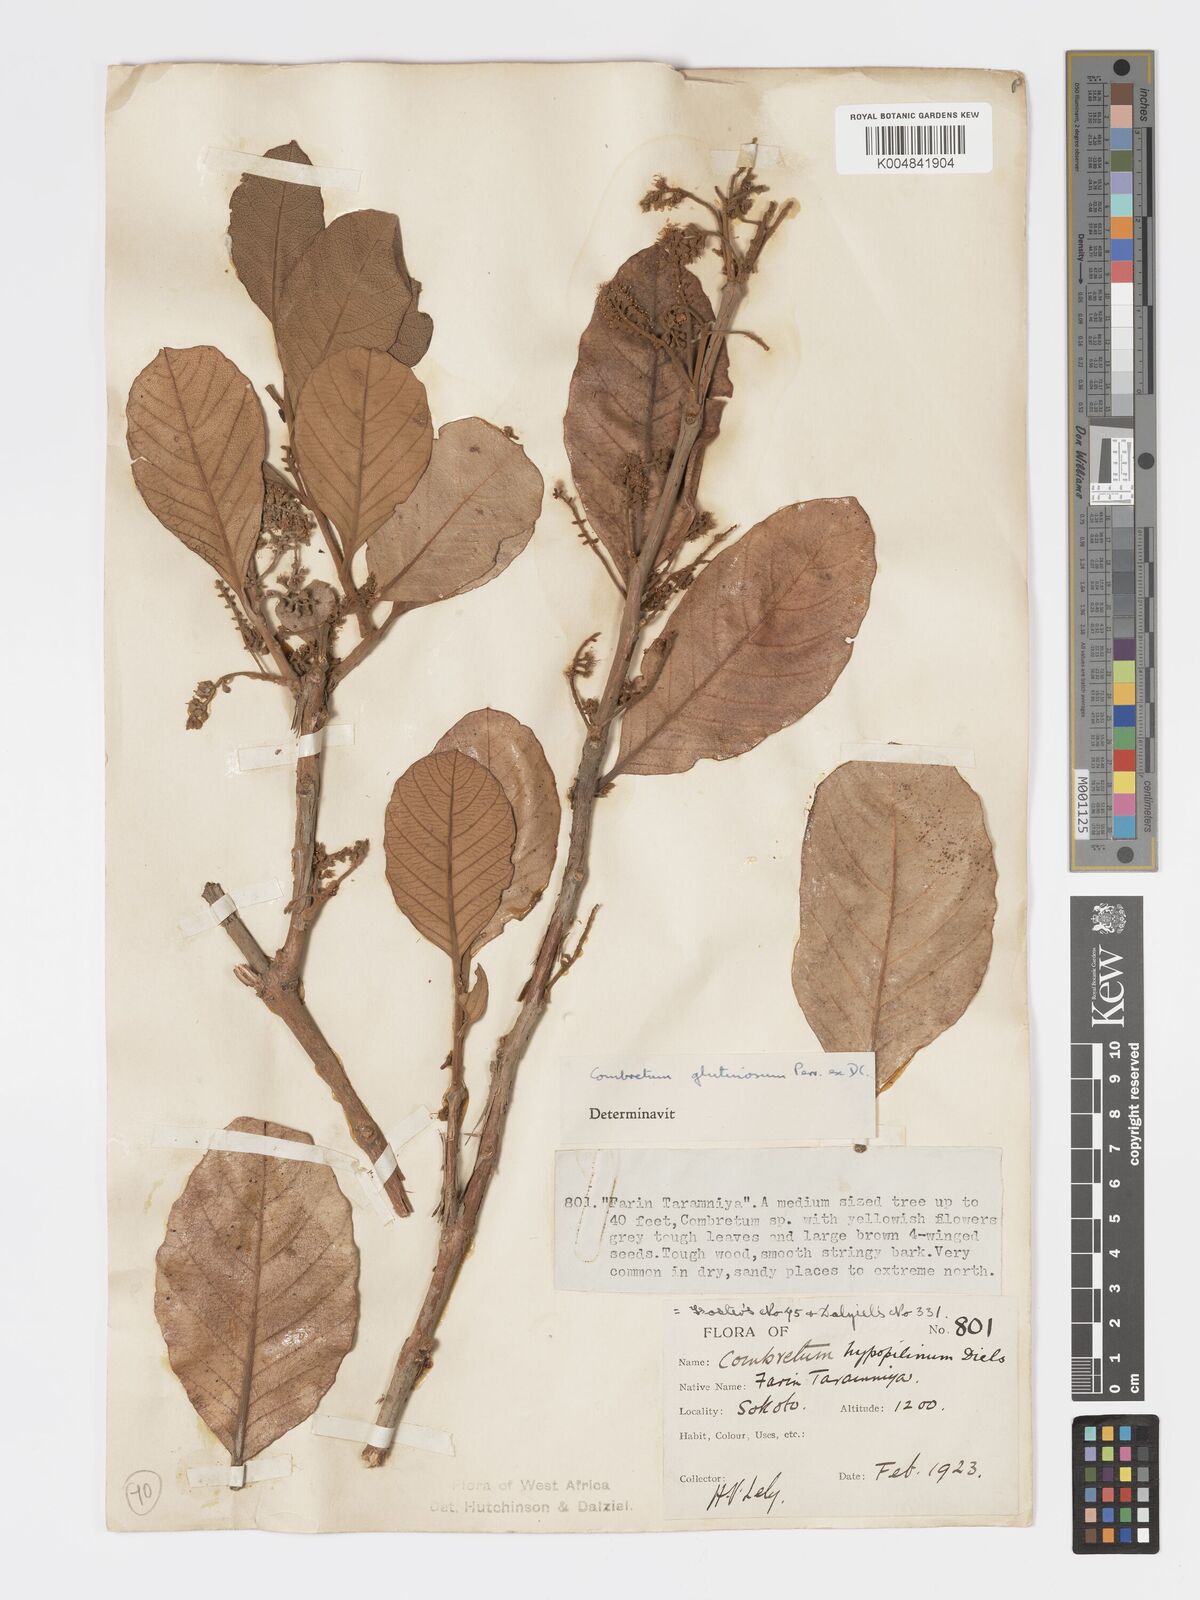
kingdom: Plantae
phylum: Tracheophyta
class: Magnoliopsida
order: Myrtales
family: Combretaceae
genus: Combretum
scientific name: Combretum
